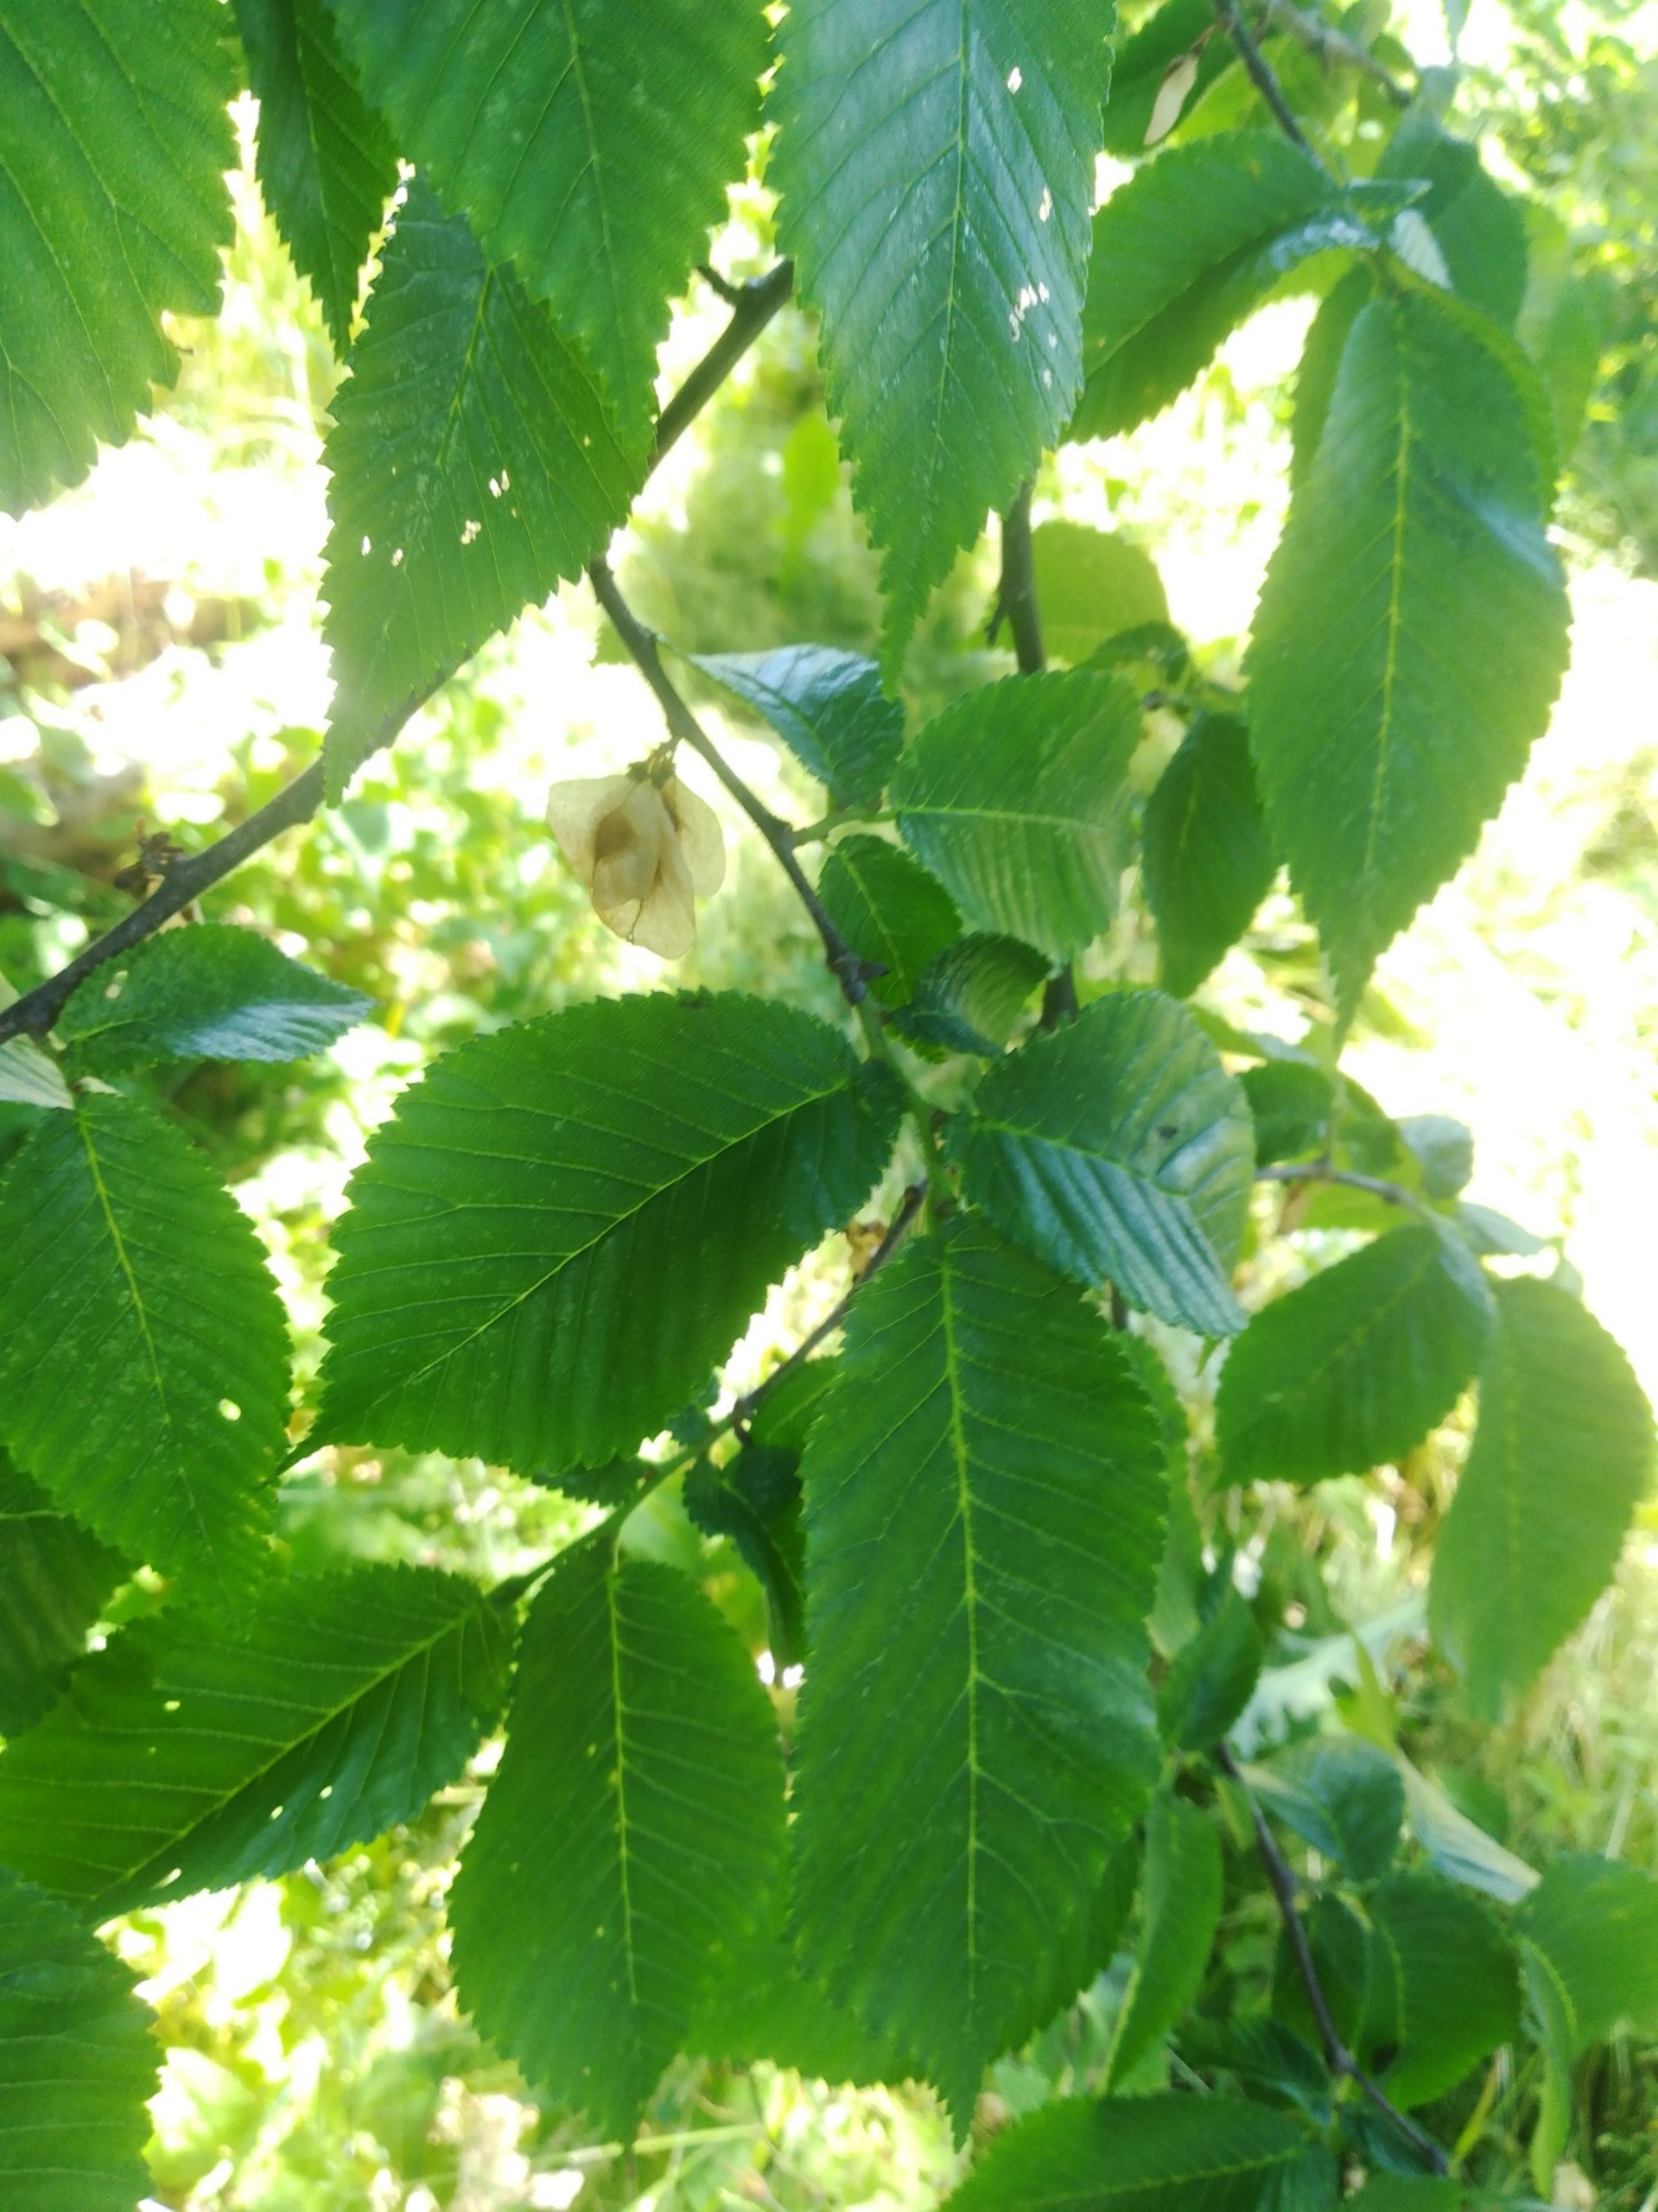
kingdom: Plantae
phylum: Tracheophyta
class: Magnoliopsida
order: Rosales
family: Ulmaceae
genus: Ulmus
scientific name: Ulmus glabra
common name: Skov-elm/storbladet elm
